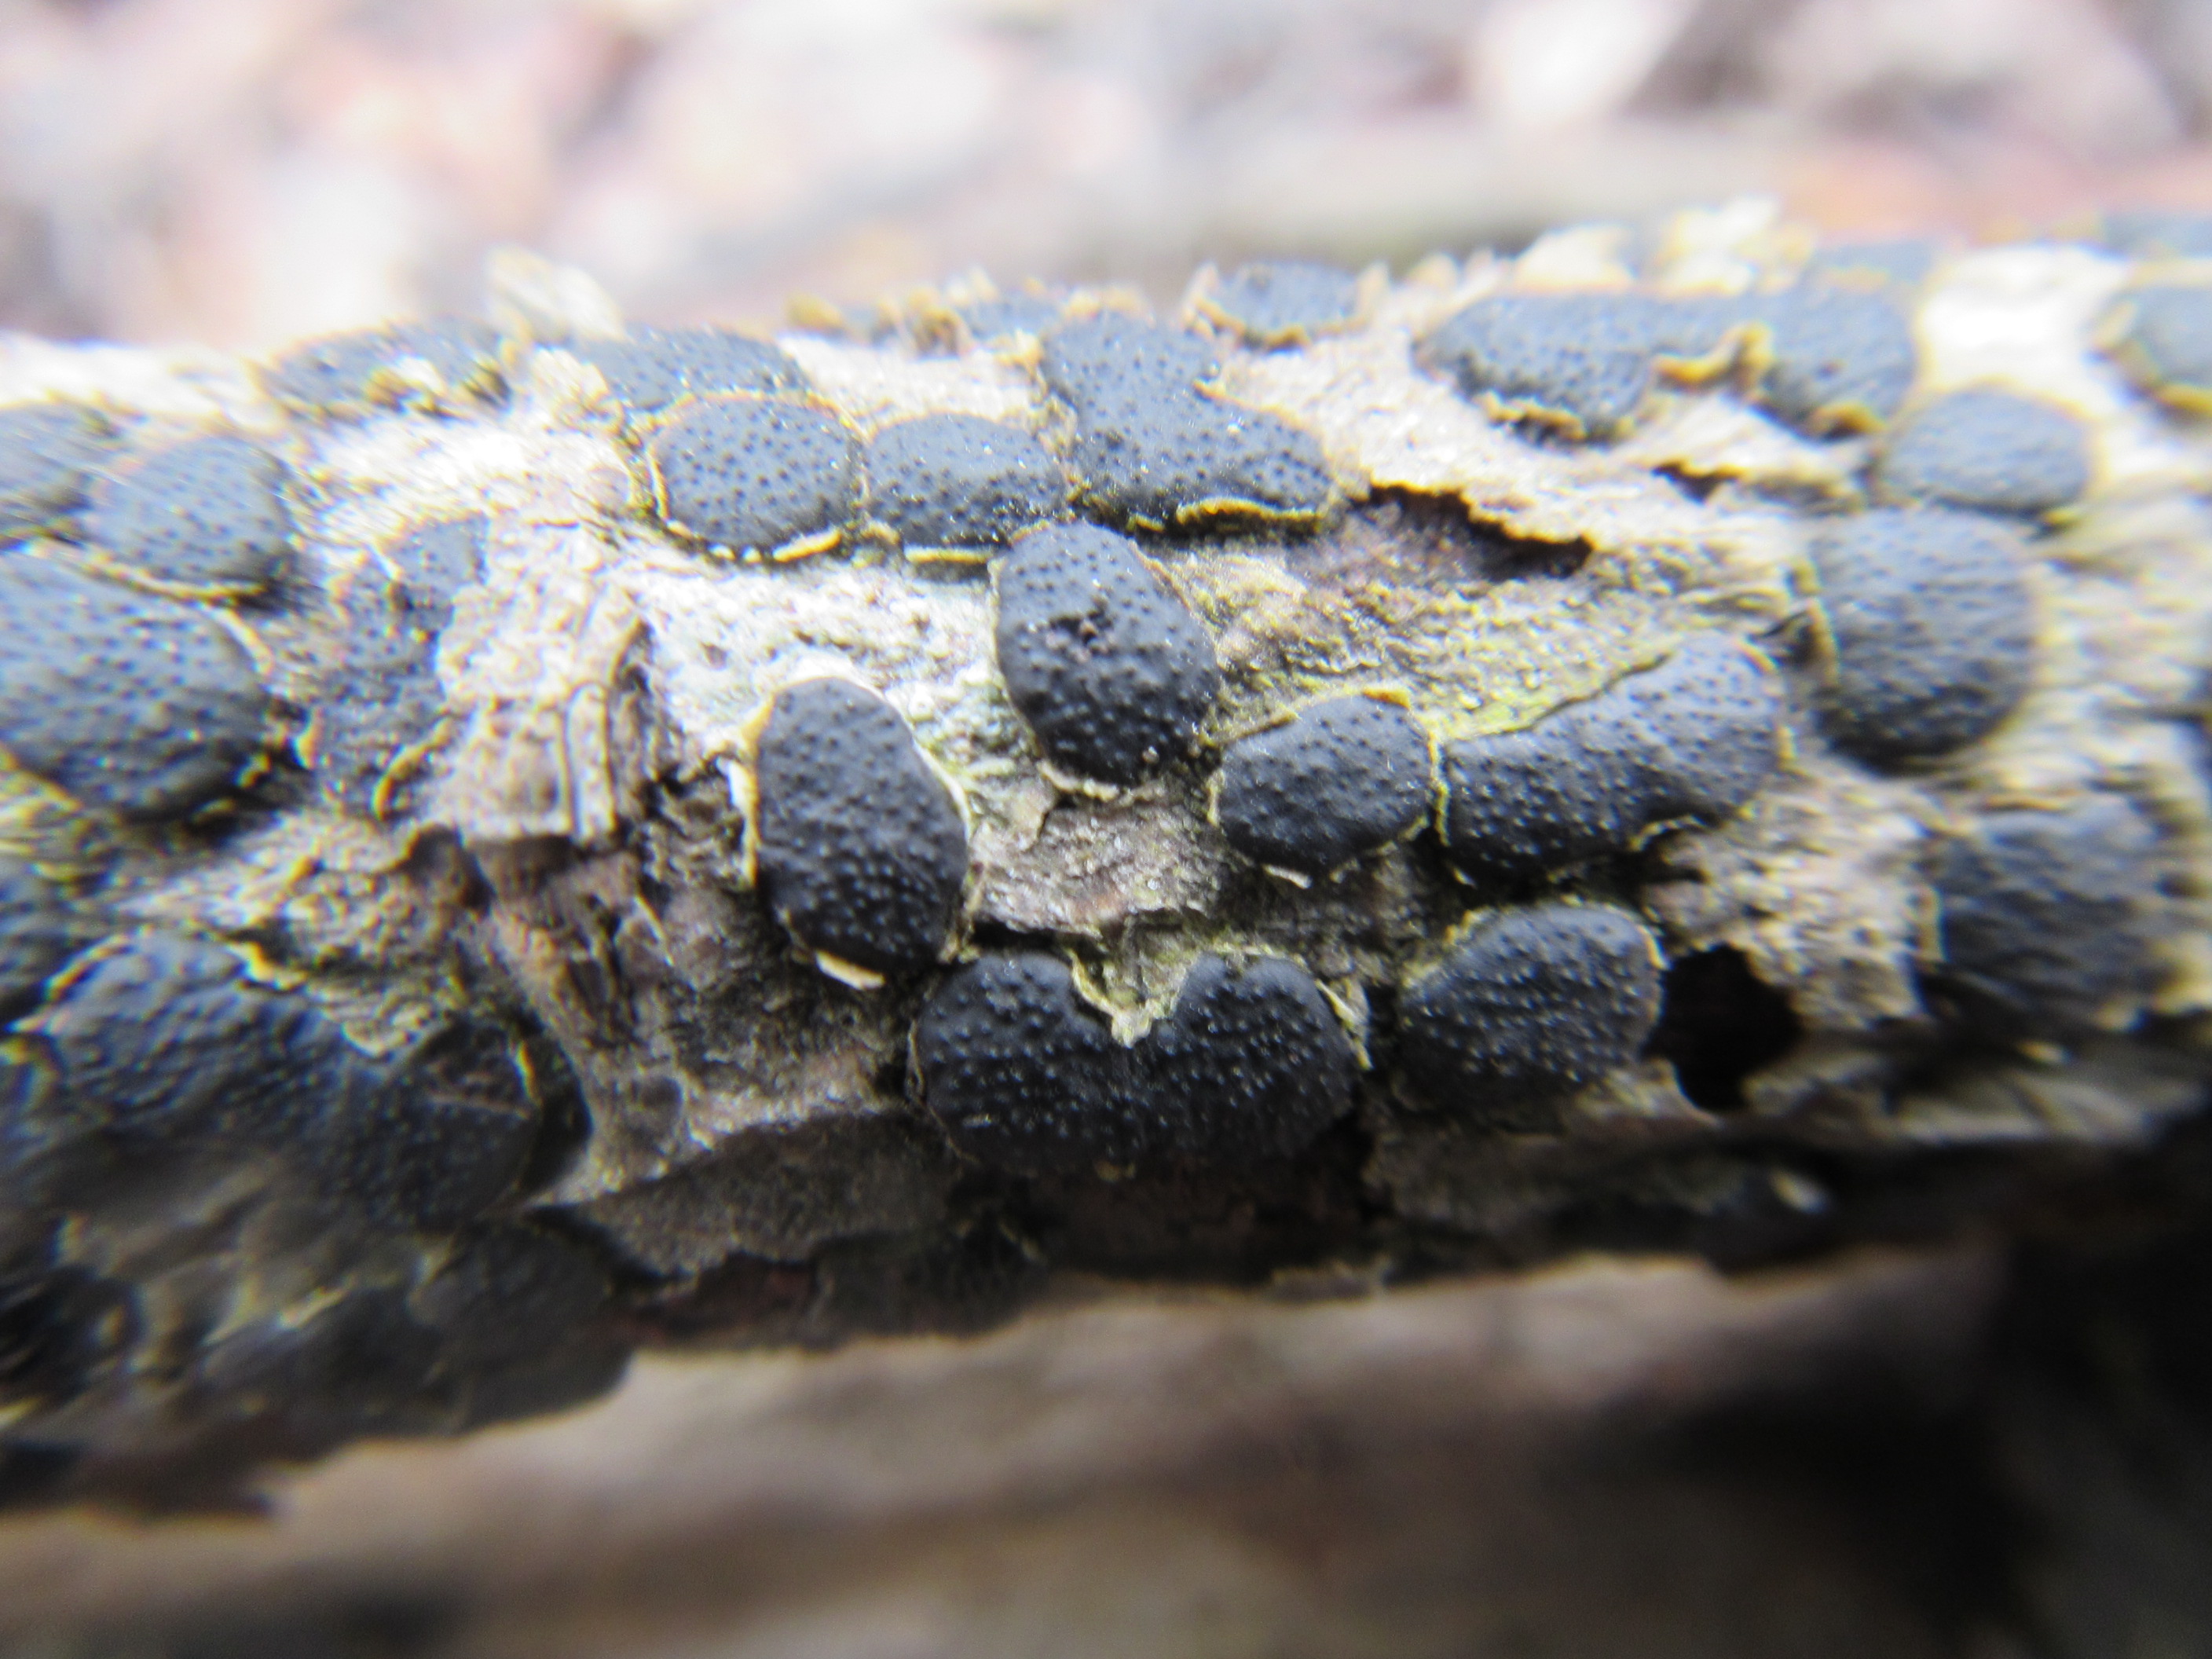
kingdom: Fungi
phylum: Ascomycota
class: Sordariomycetes
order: Xylariales
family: Diatrypaceae
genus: Diatrype
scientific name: Diatrype bullata
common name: Willow barkspot
